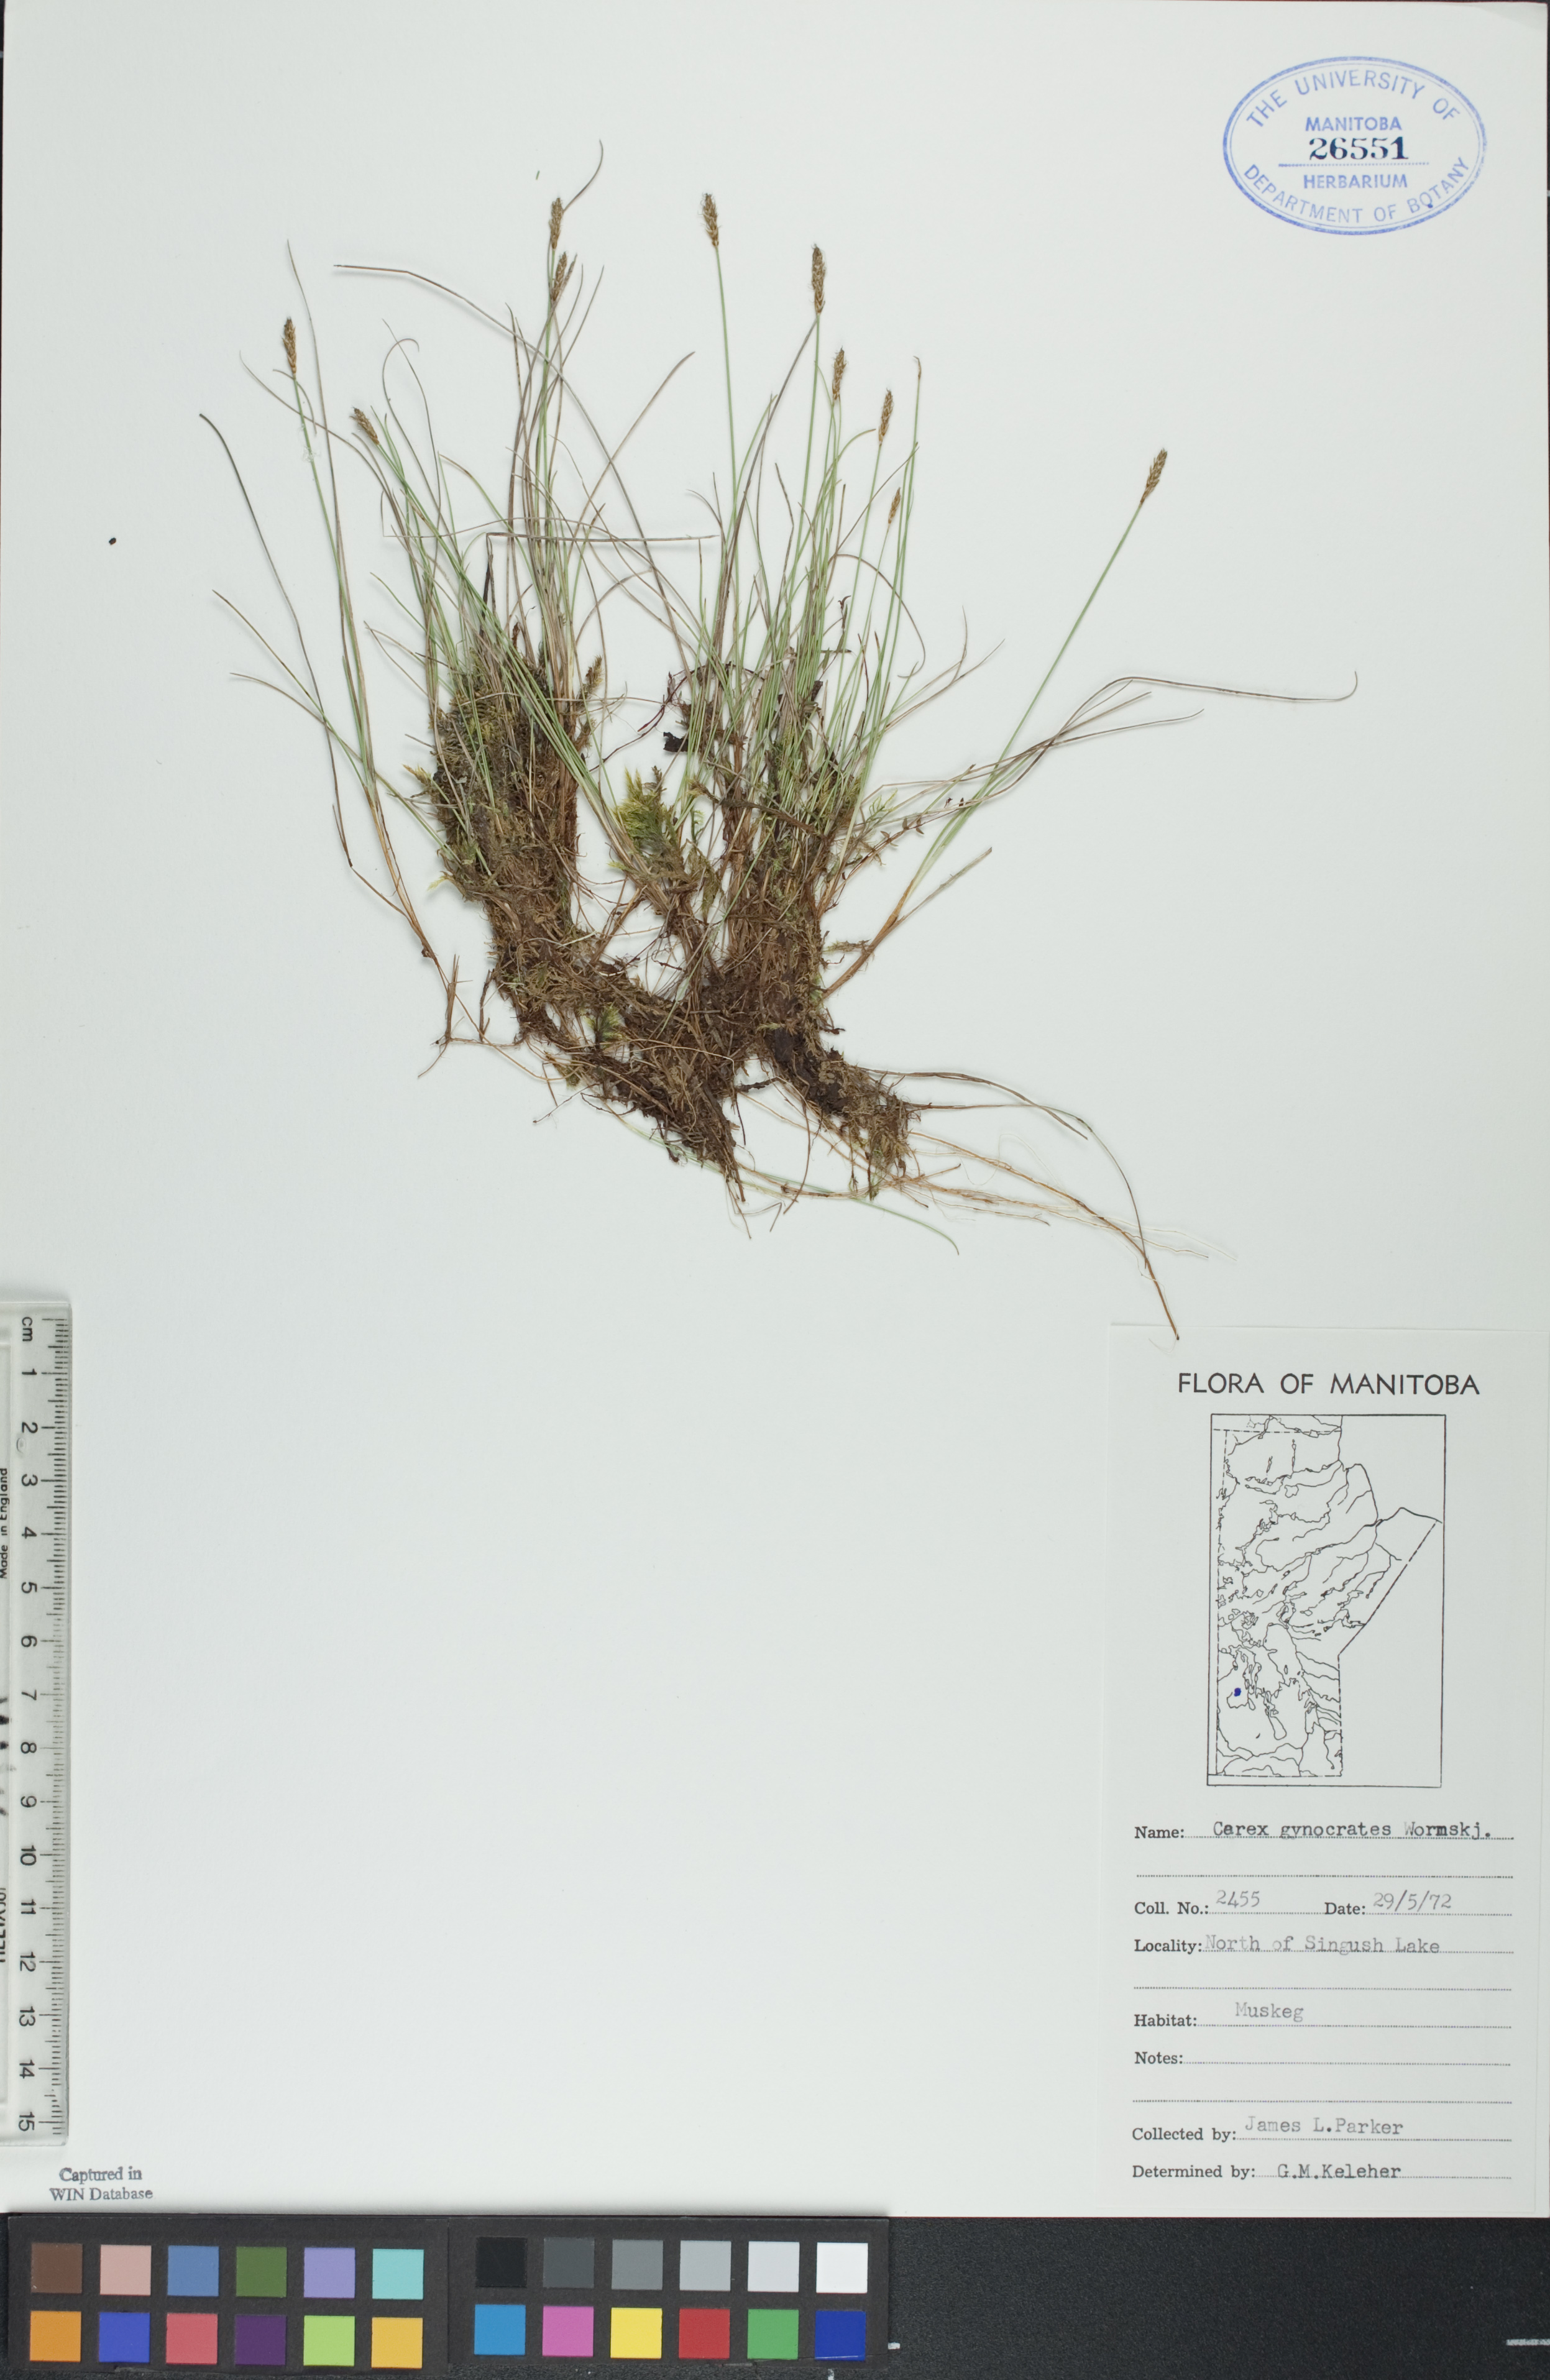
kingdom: Plantae
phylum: Tracheophyta
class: Liliopsida
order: Poales
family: Cyperaceae
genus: Carex
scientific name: Carex nardina
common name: Nard sedge
